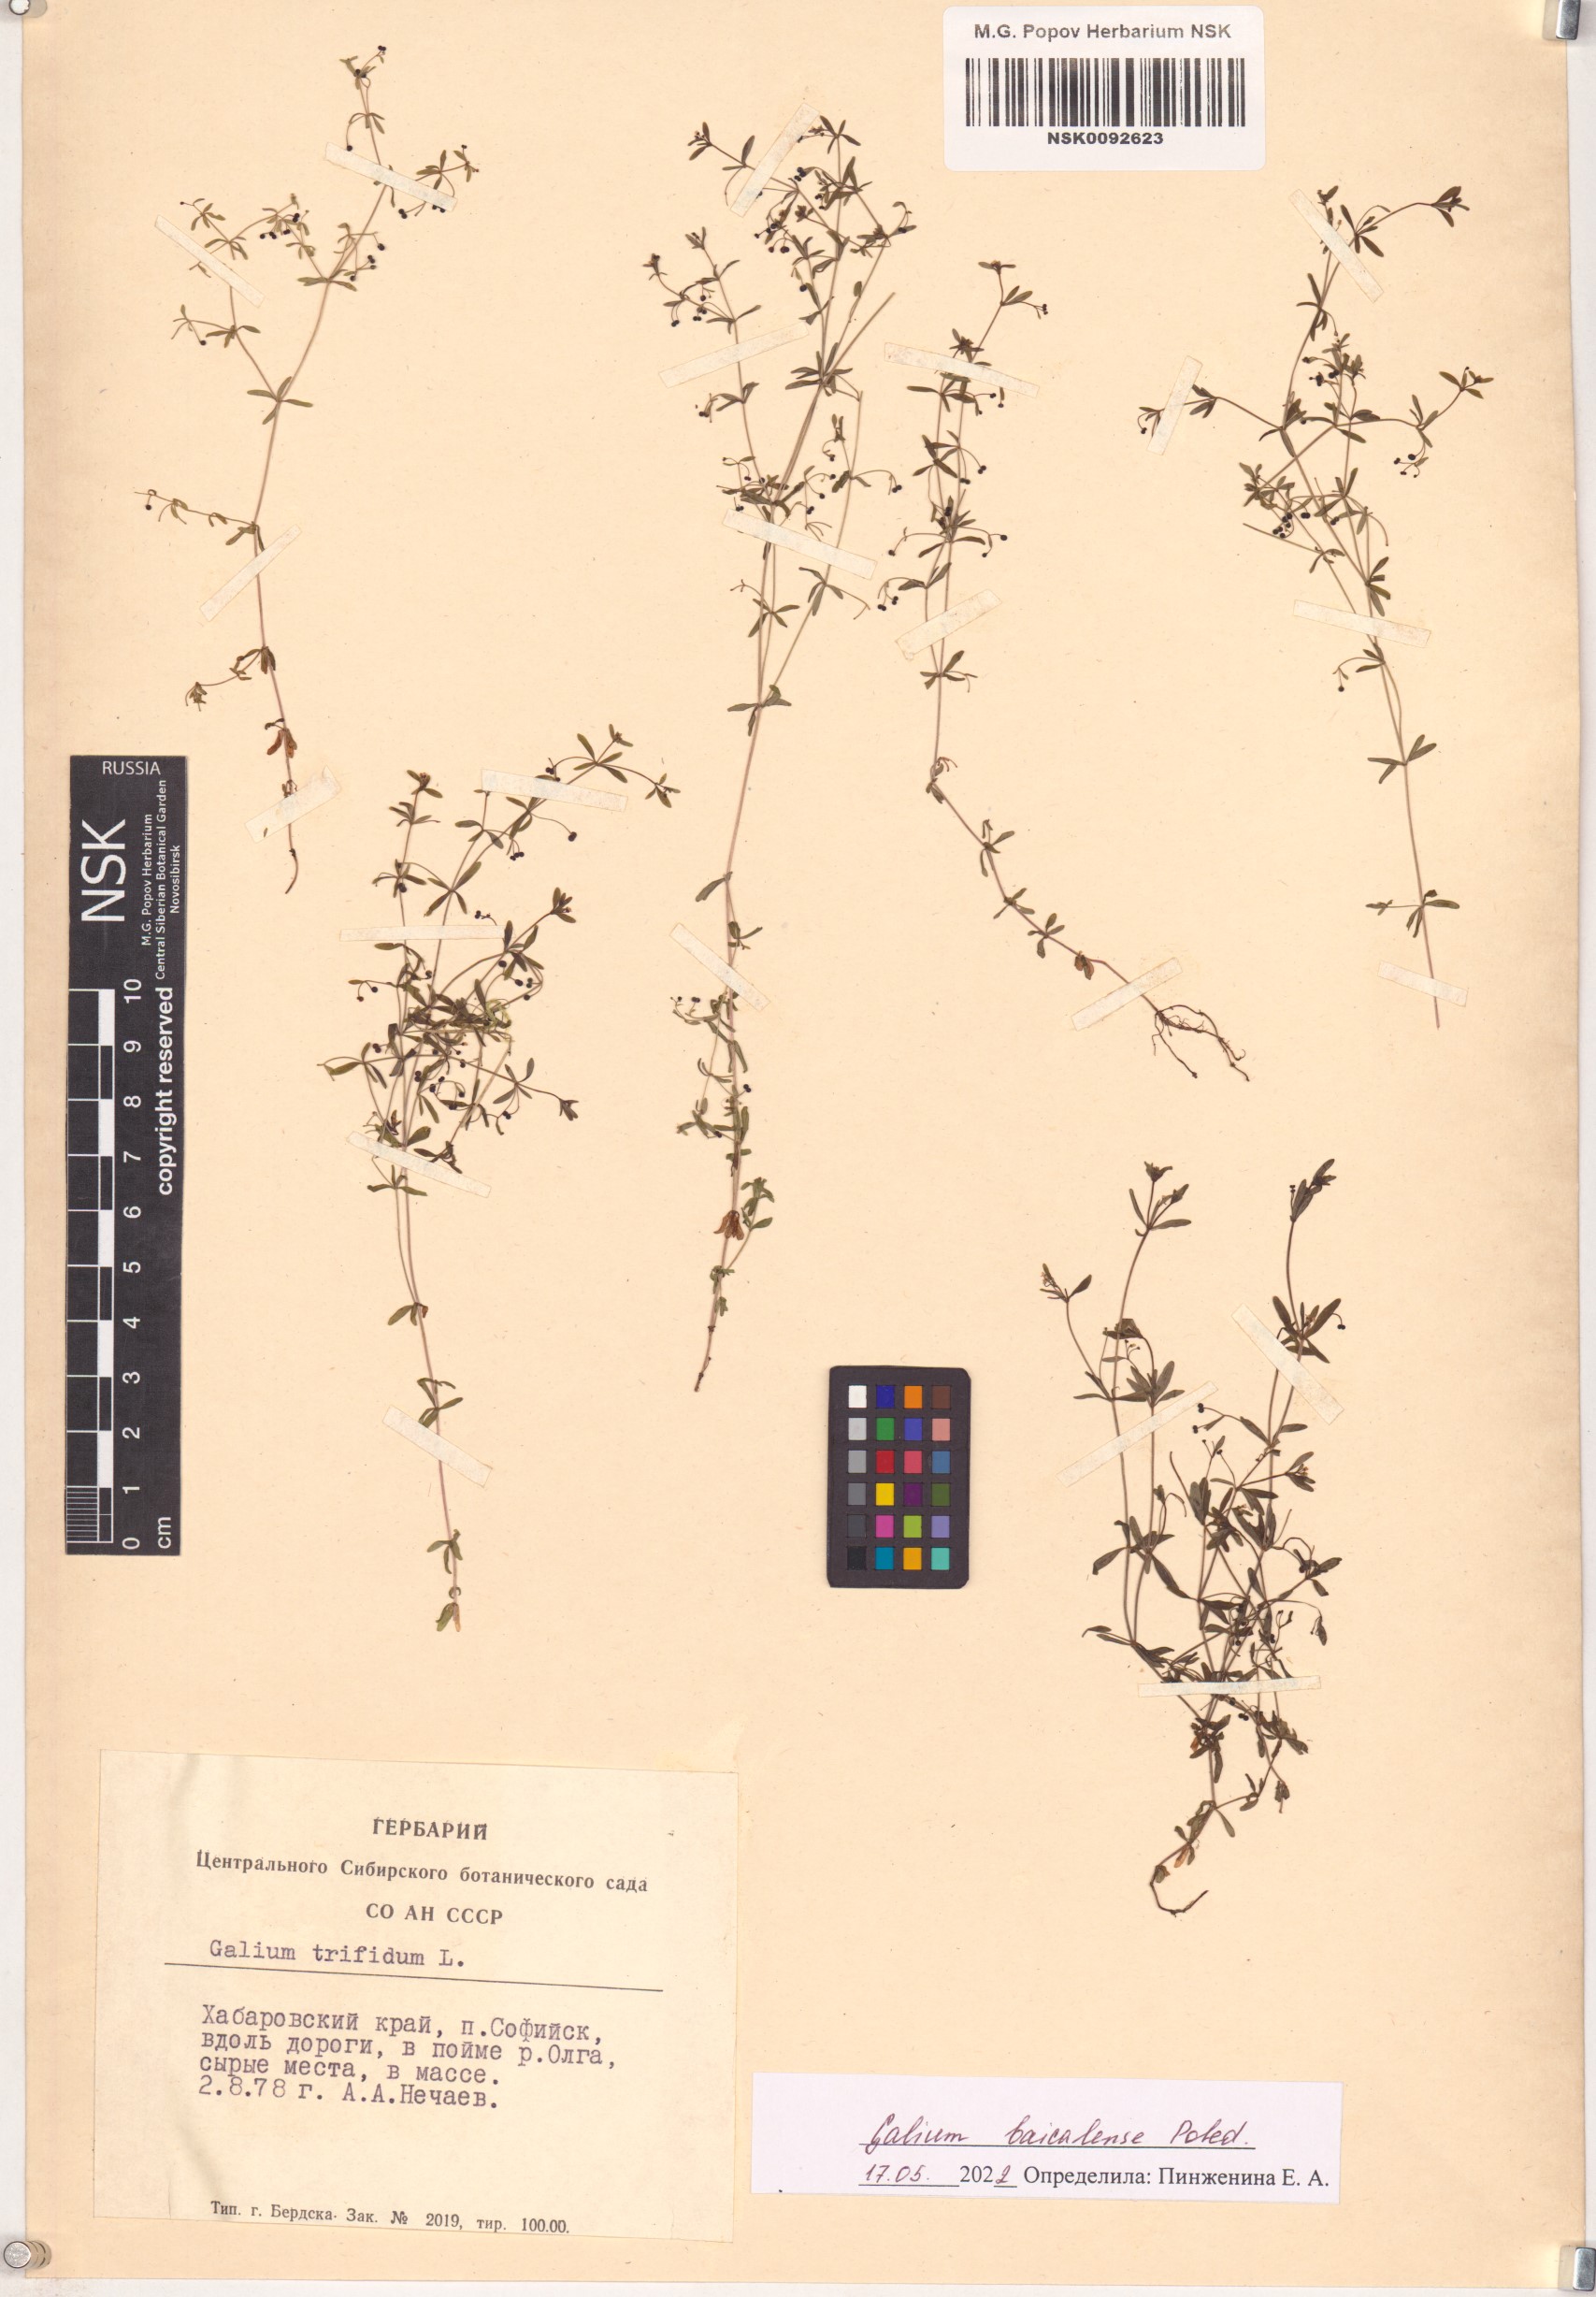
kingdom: Plantae
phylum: Tracheophyta
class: Magnoliopsida
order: Gentianales
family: Rubiaceae
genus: Galium
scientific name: Galium trifidum
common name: Small bedstraw
